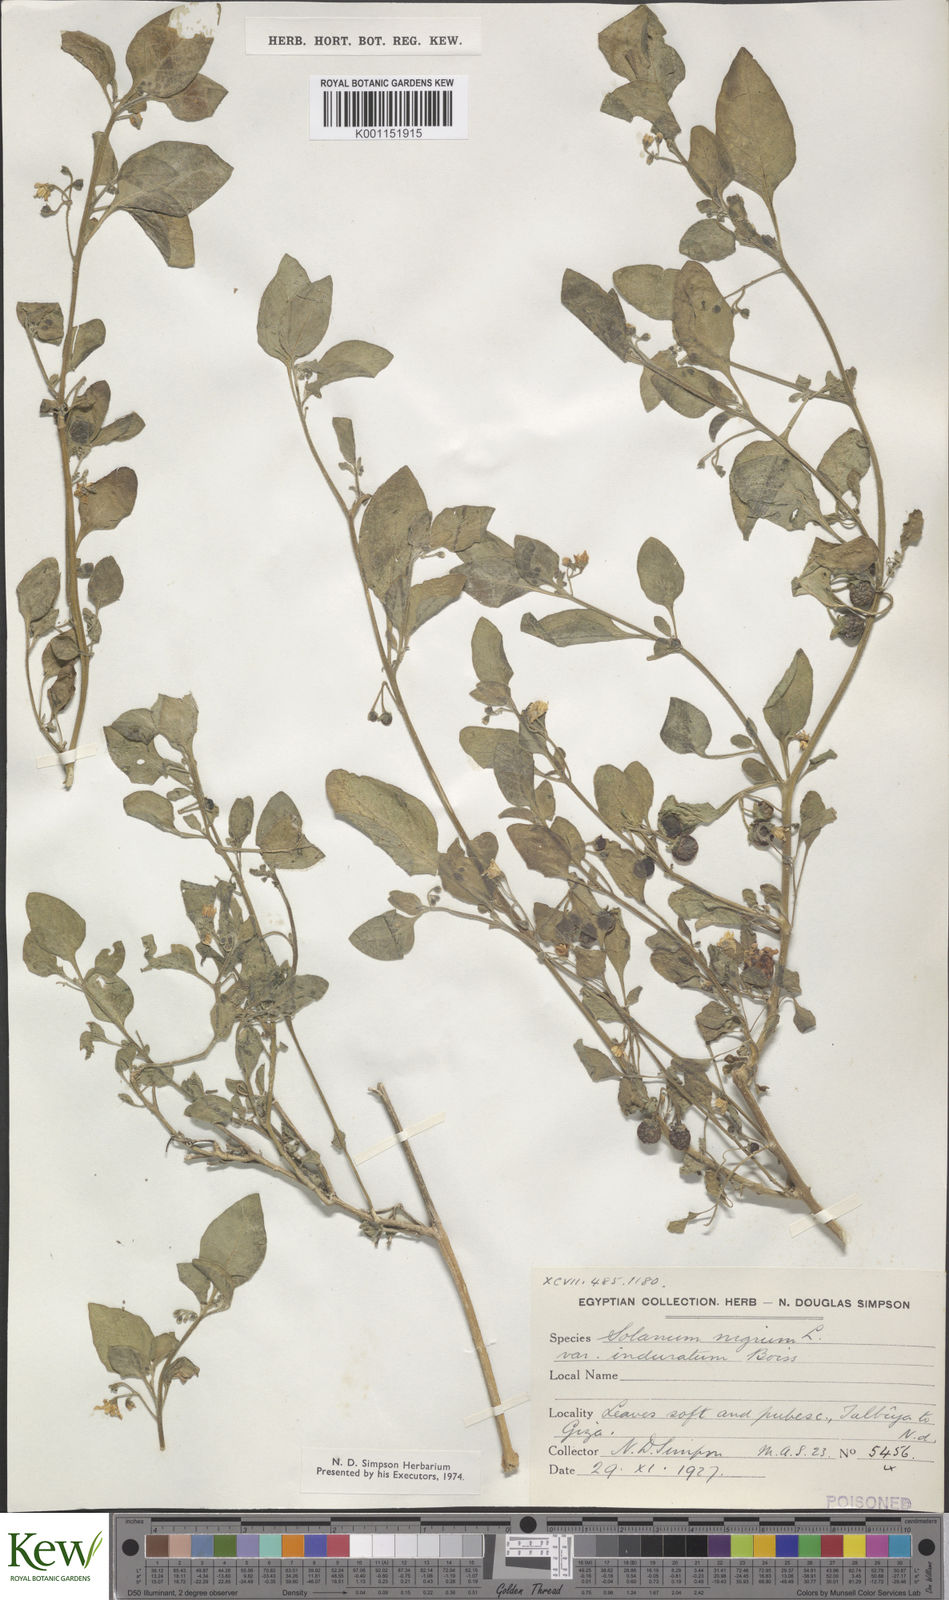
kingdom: Plantae
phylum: Tracheophyta
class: Magnoliopsida
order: Solanales
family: Solanaceae
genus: Solanum
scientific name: Solanum villosum
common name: Red nightshade
